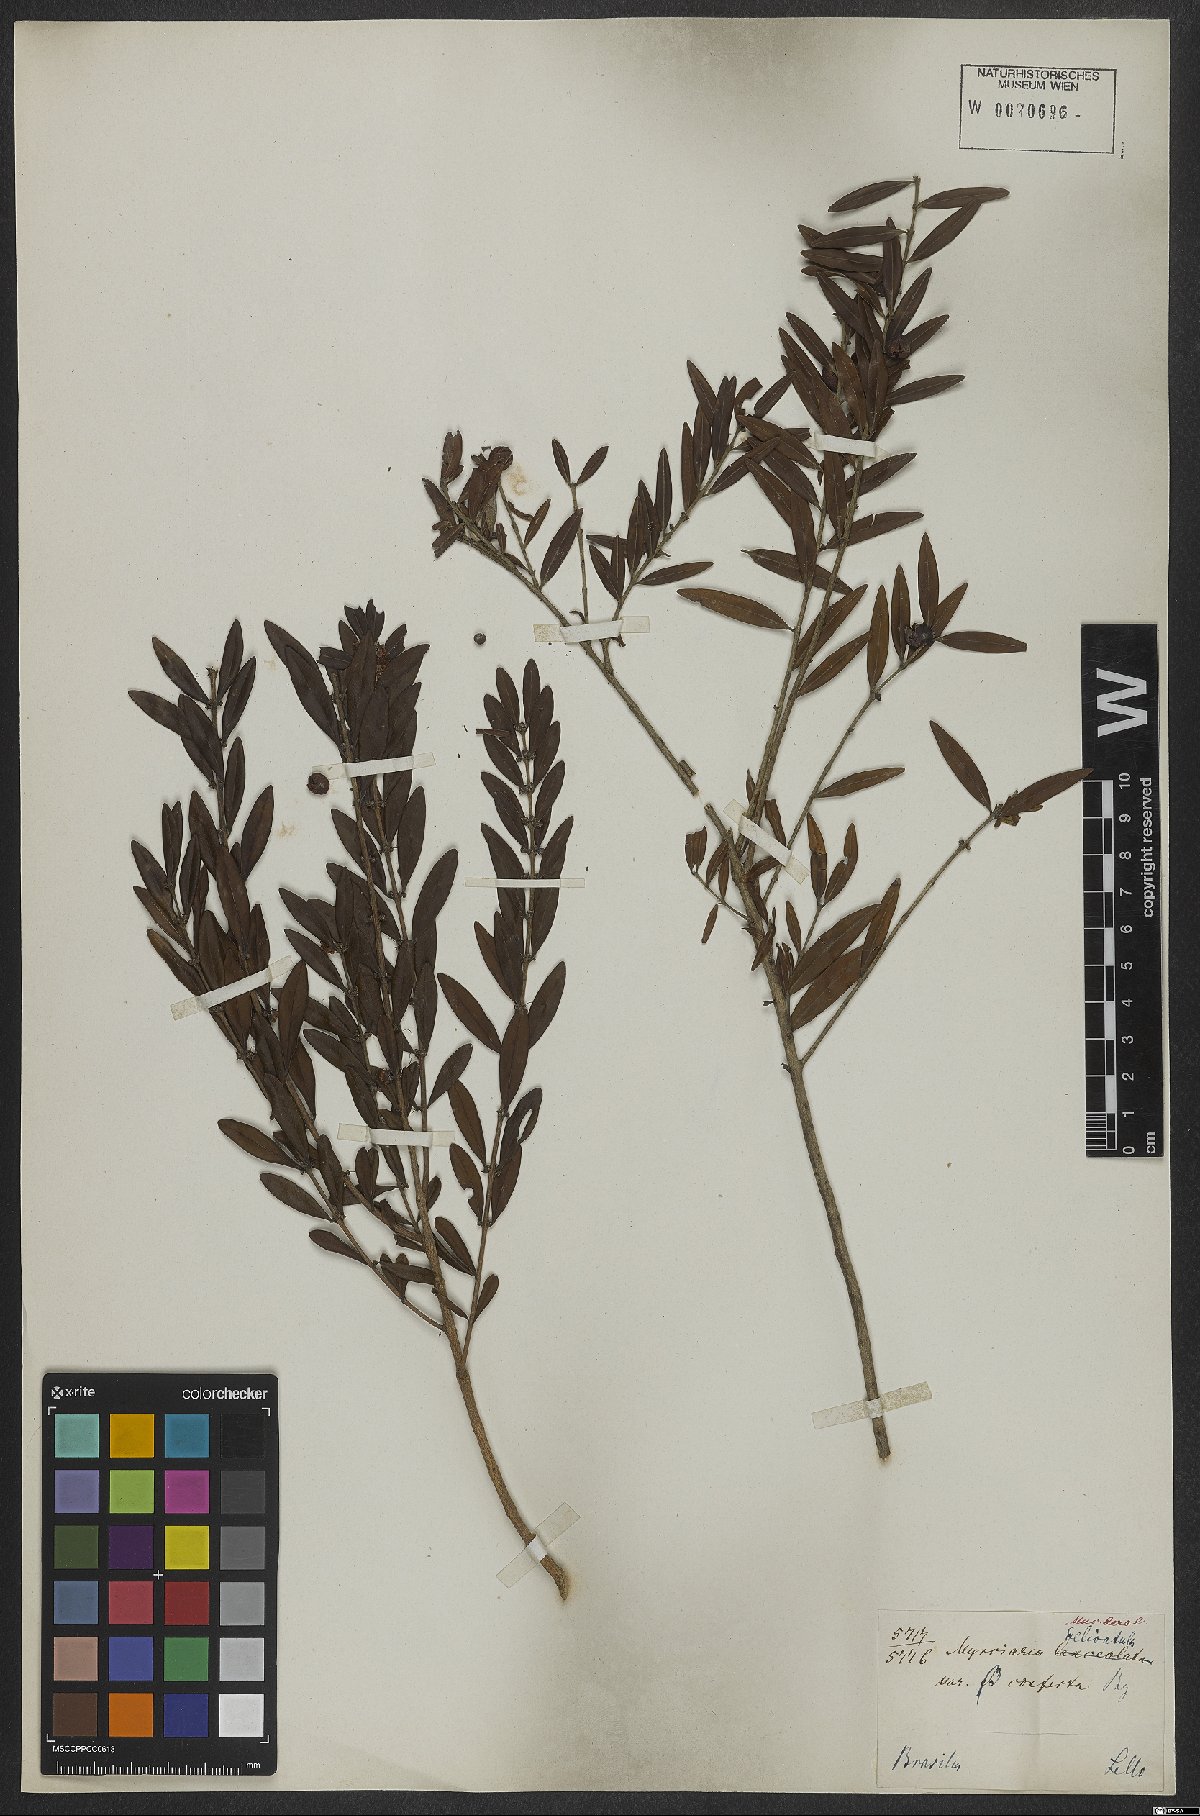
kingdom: Plantae
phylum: Tracheophyta
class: Magnoliopsida
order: Myrtales
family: Myrtaceae
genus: Myrciaria
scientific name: Myrciaria delicatula
